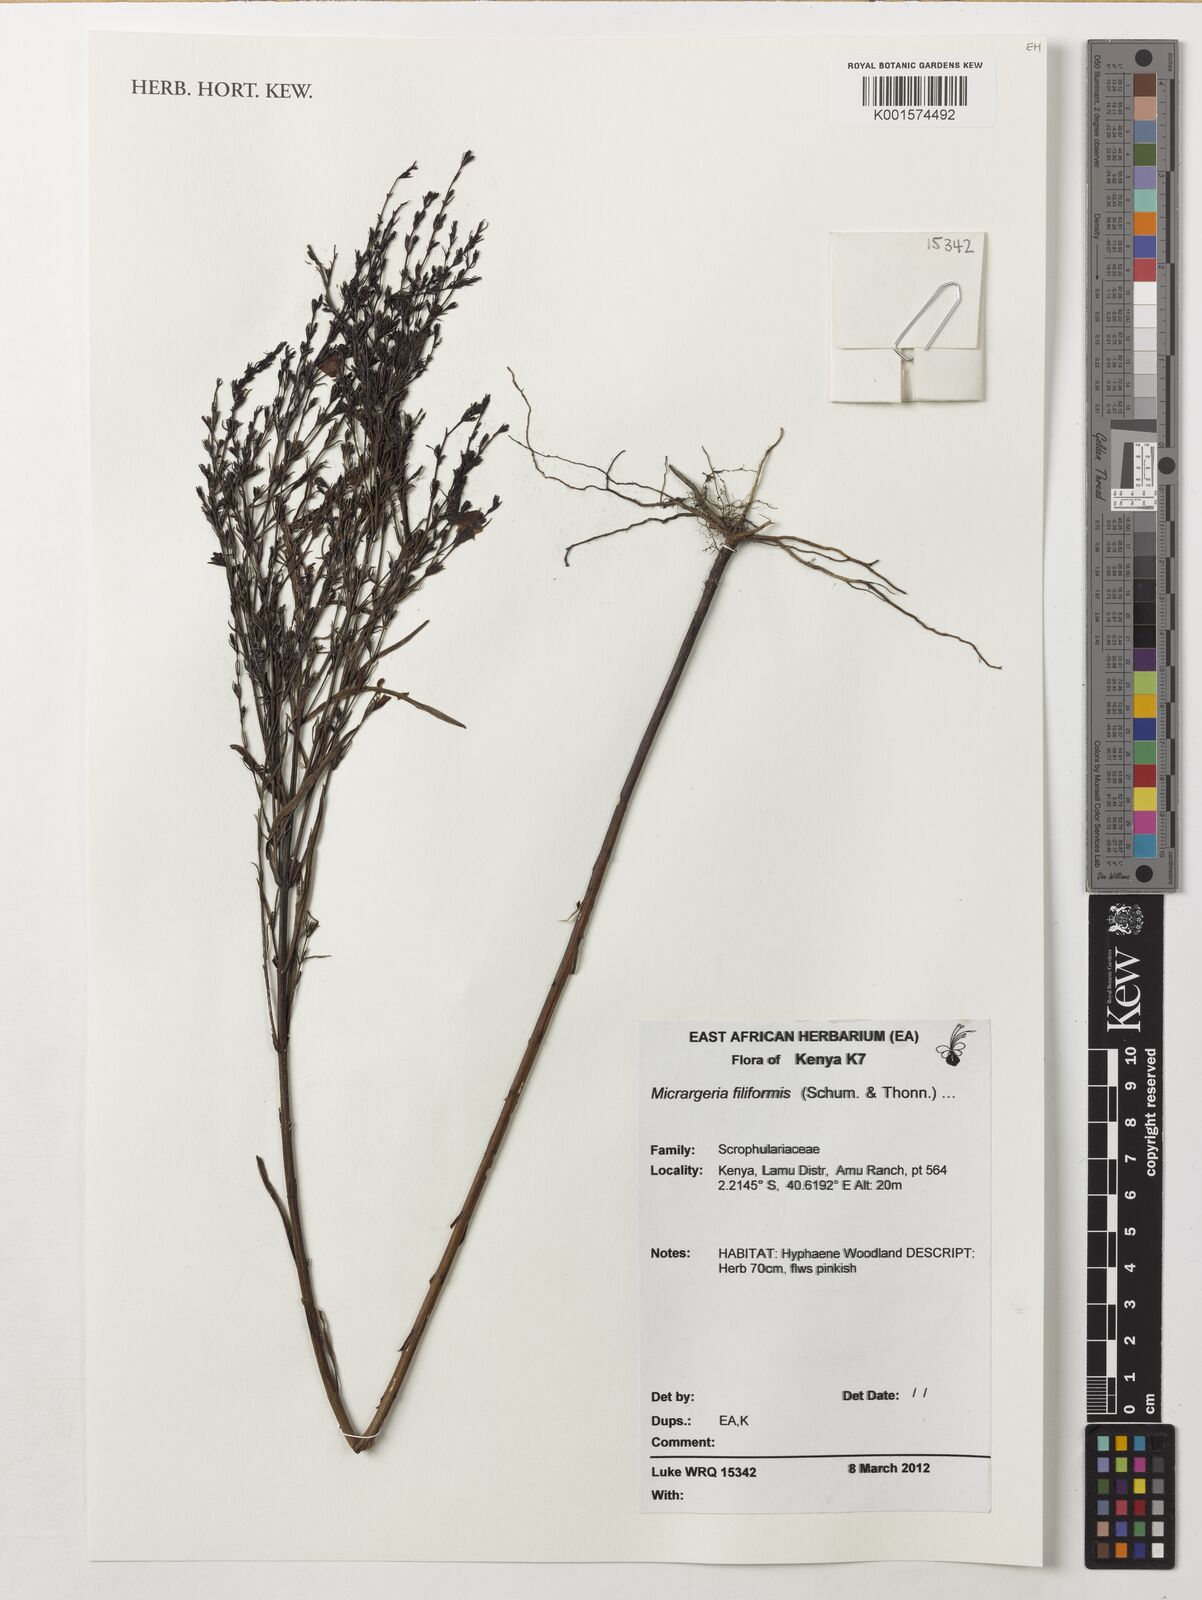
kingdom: Plantae
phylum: Tracheophyta
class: Magnoliopsida
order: Lamiales
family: Orobanchaceae
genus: Micrargeria
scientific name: Micrargeria filiformis
